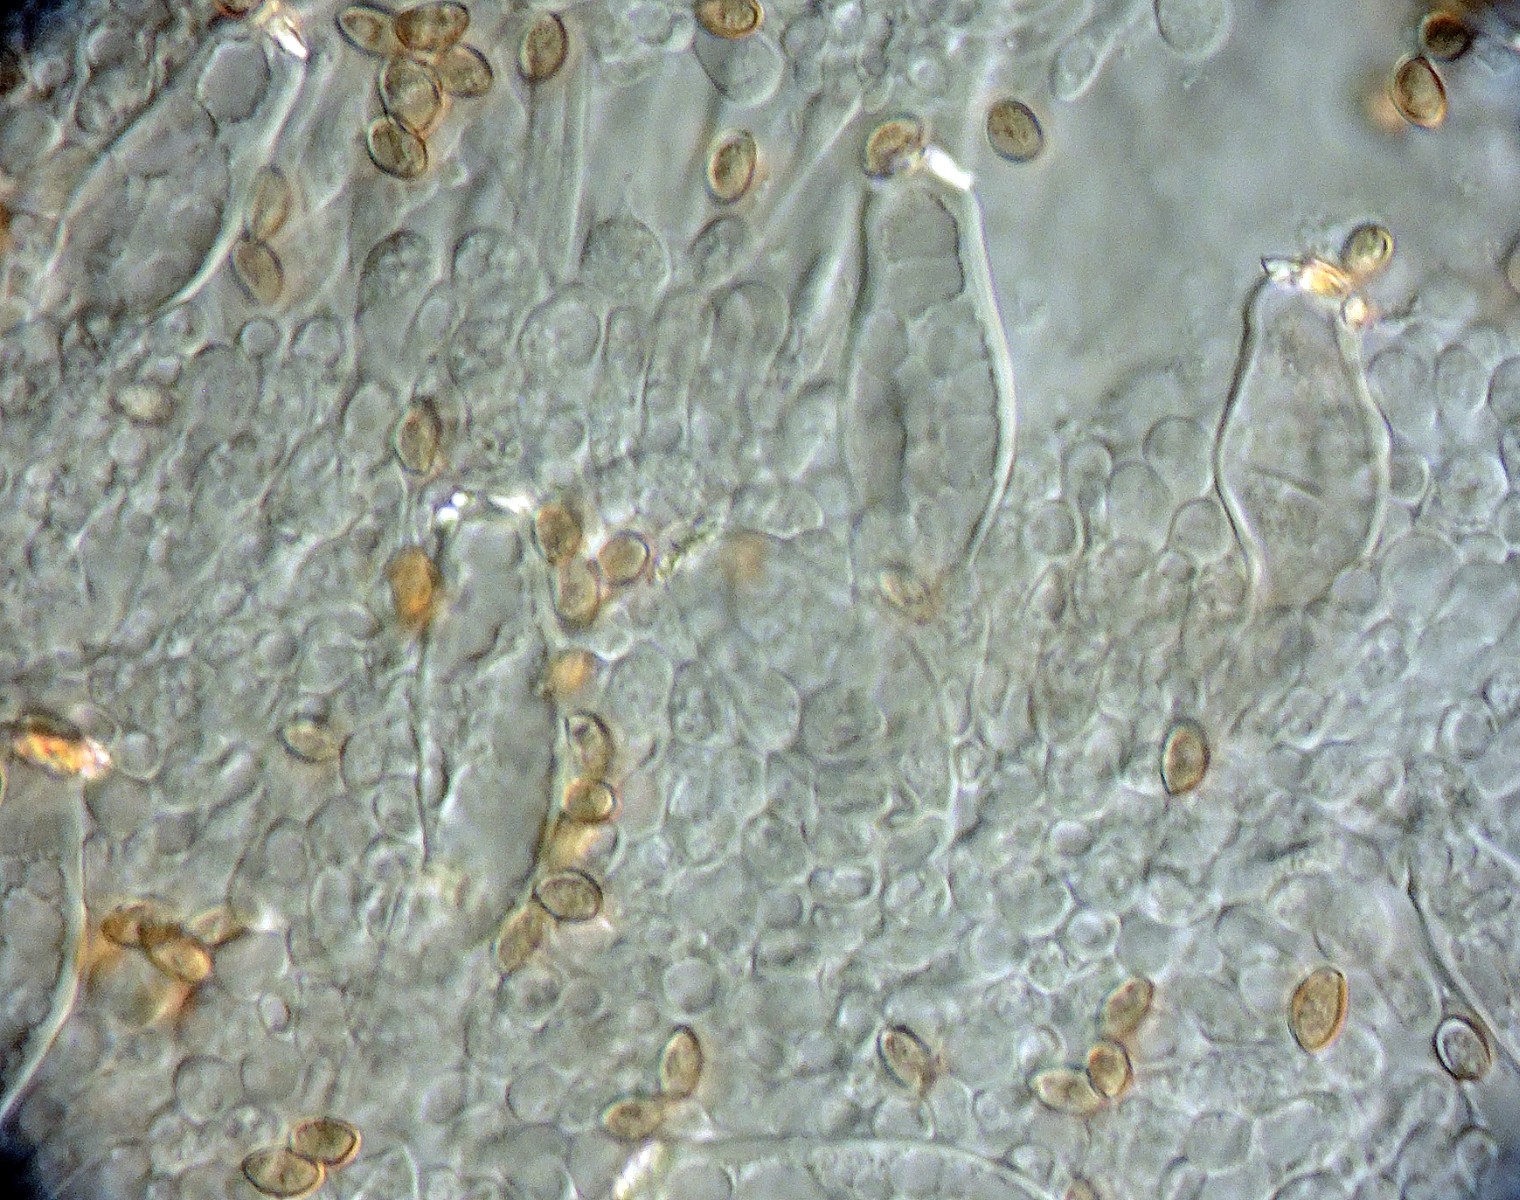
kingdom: Fungi
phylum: Basidiomycota
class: Agaricomycetes
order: Agaricales
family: Inocybaceae
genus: Inocybe
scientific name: Inocybe langei
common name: Langes trævlhat
